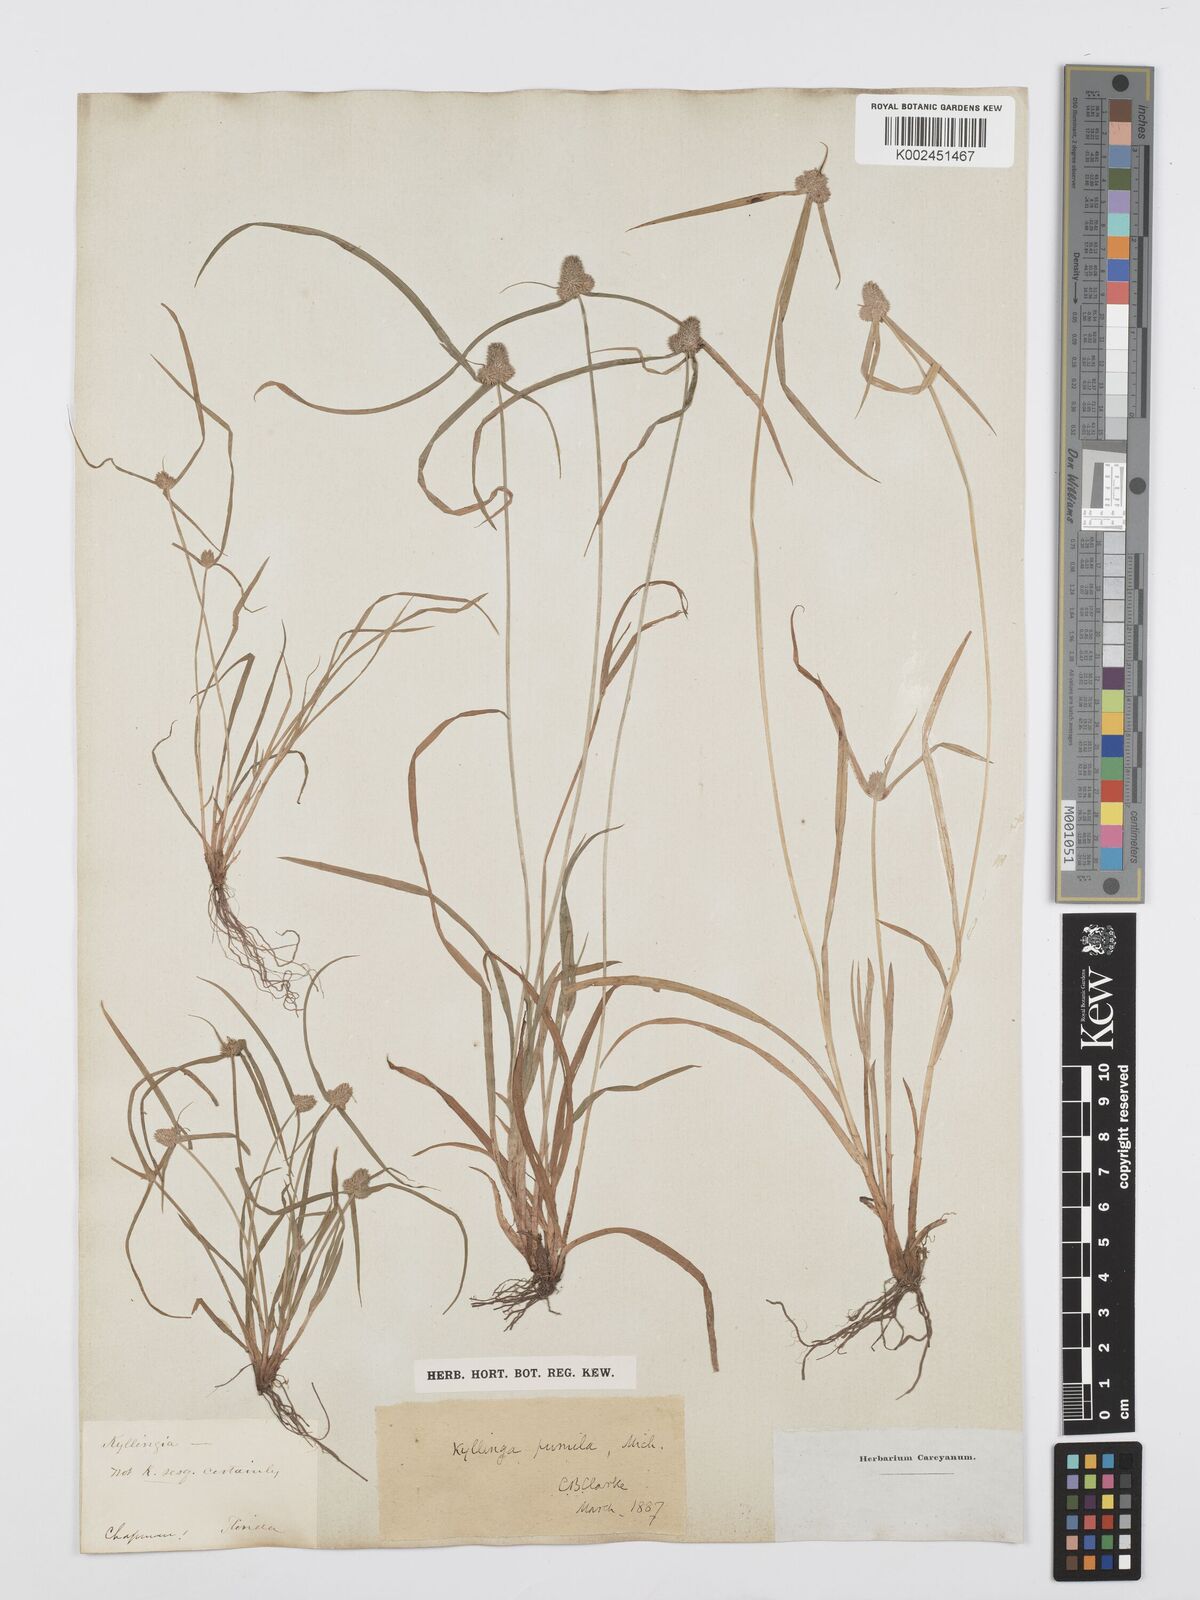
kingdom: Plantae
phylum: Tracheophyta
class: Liliopsida
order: Poales
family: Cyperaceae
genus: Cyperus
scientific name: Cyperus
